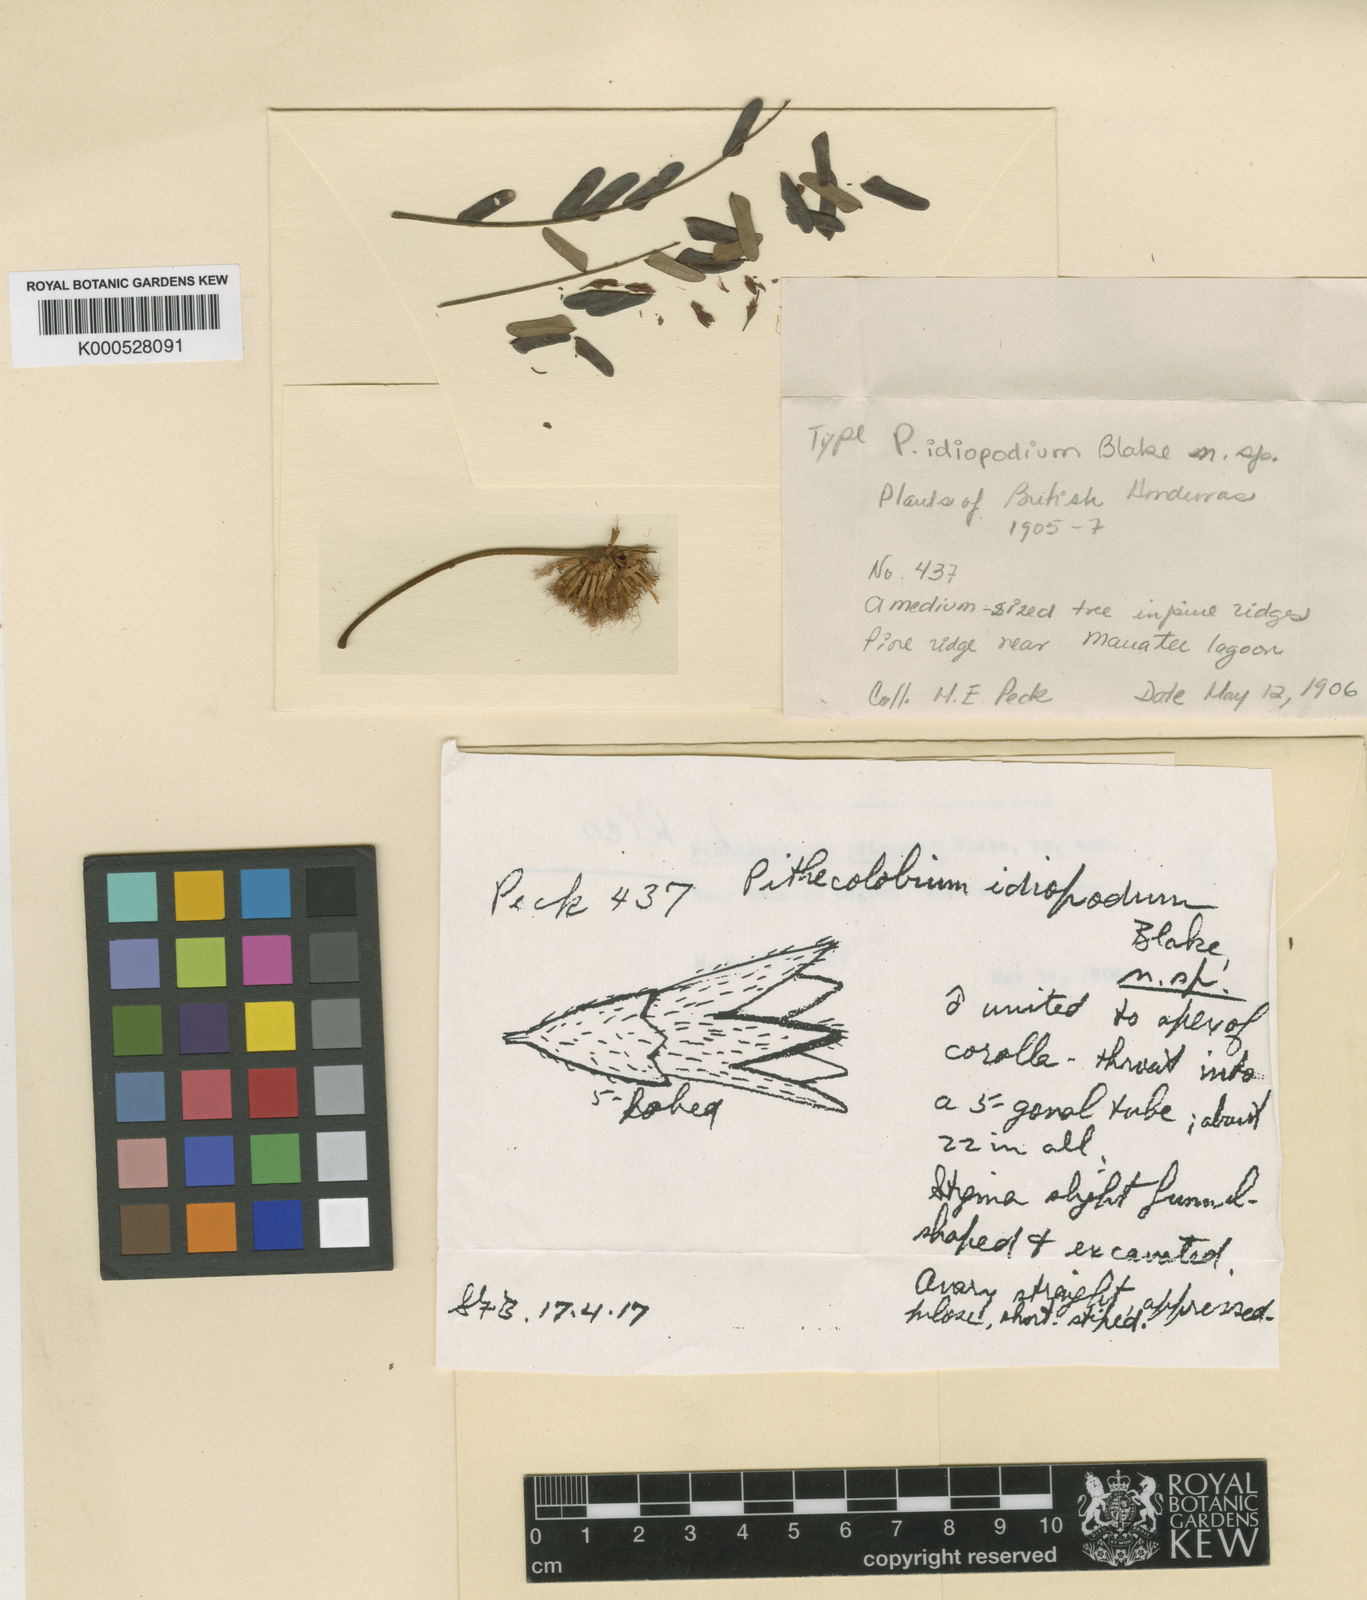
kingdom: Plantae
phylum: Tracheophyta
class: Magnoliopsida
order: Fabales
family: Fabaceae
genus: Jupunba
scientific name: Jupunba idiopoda
